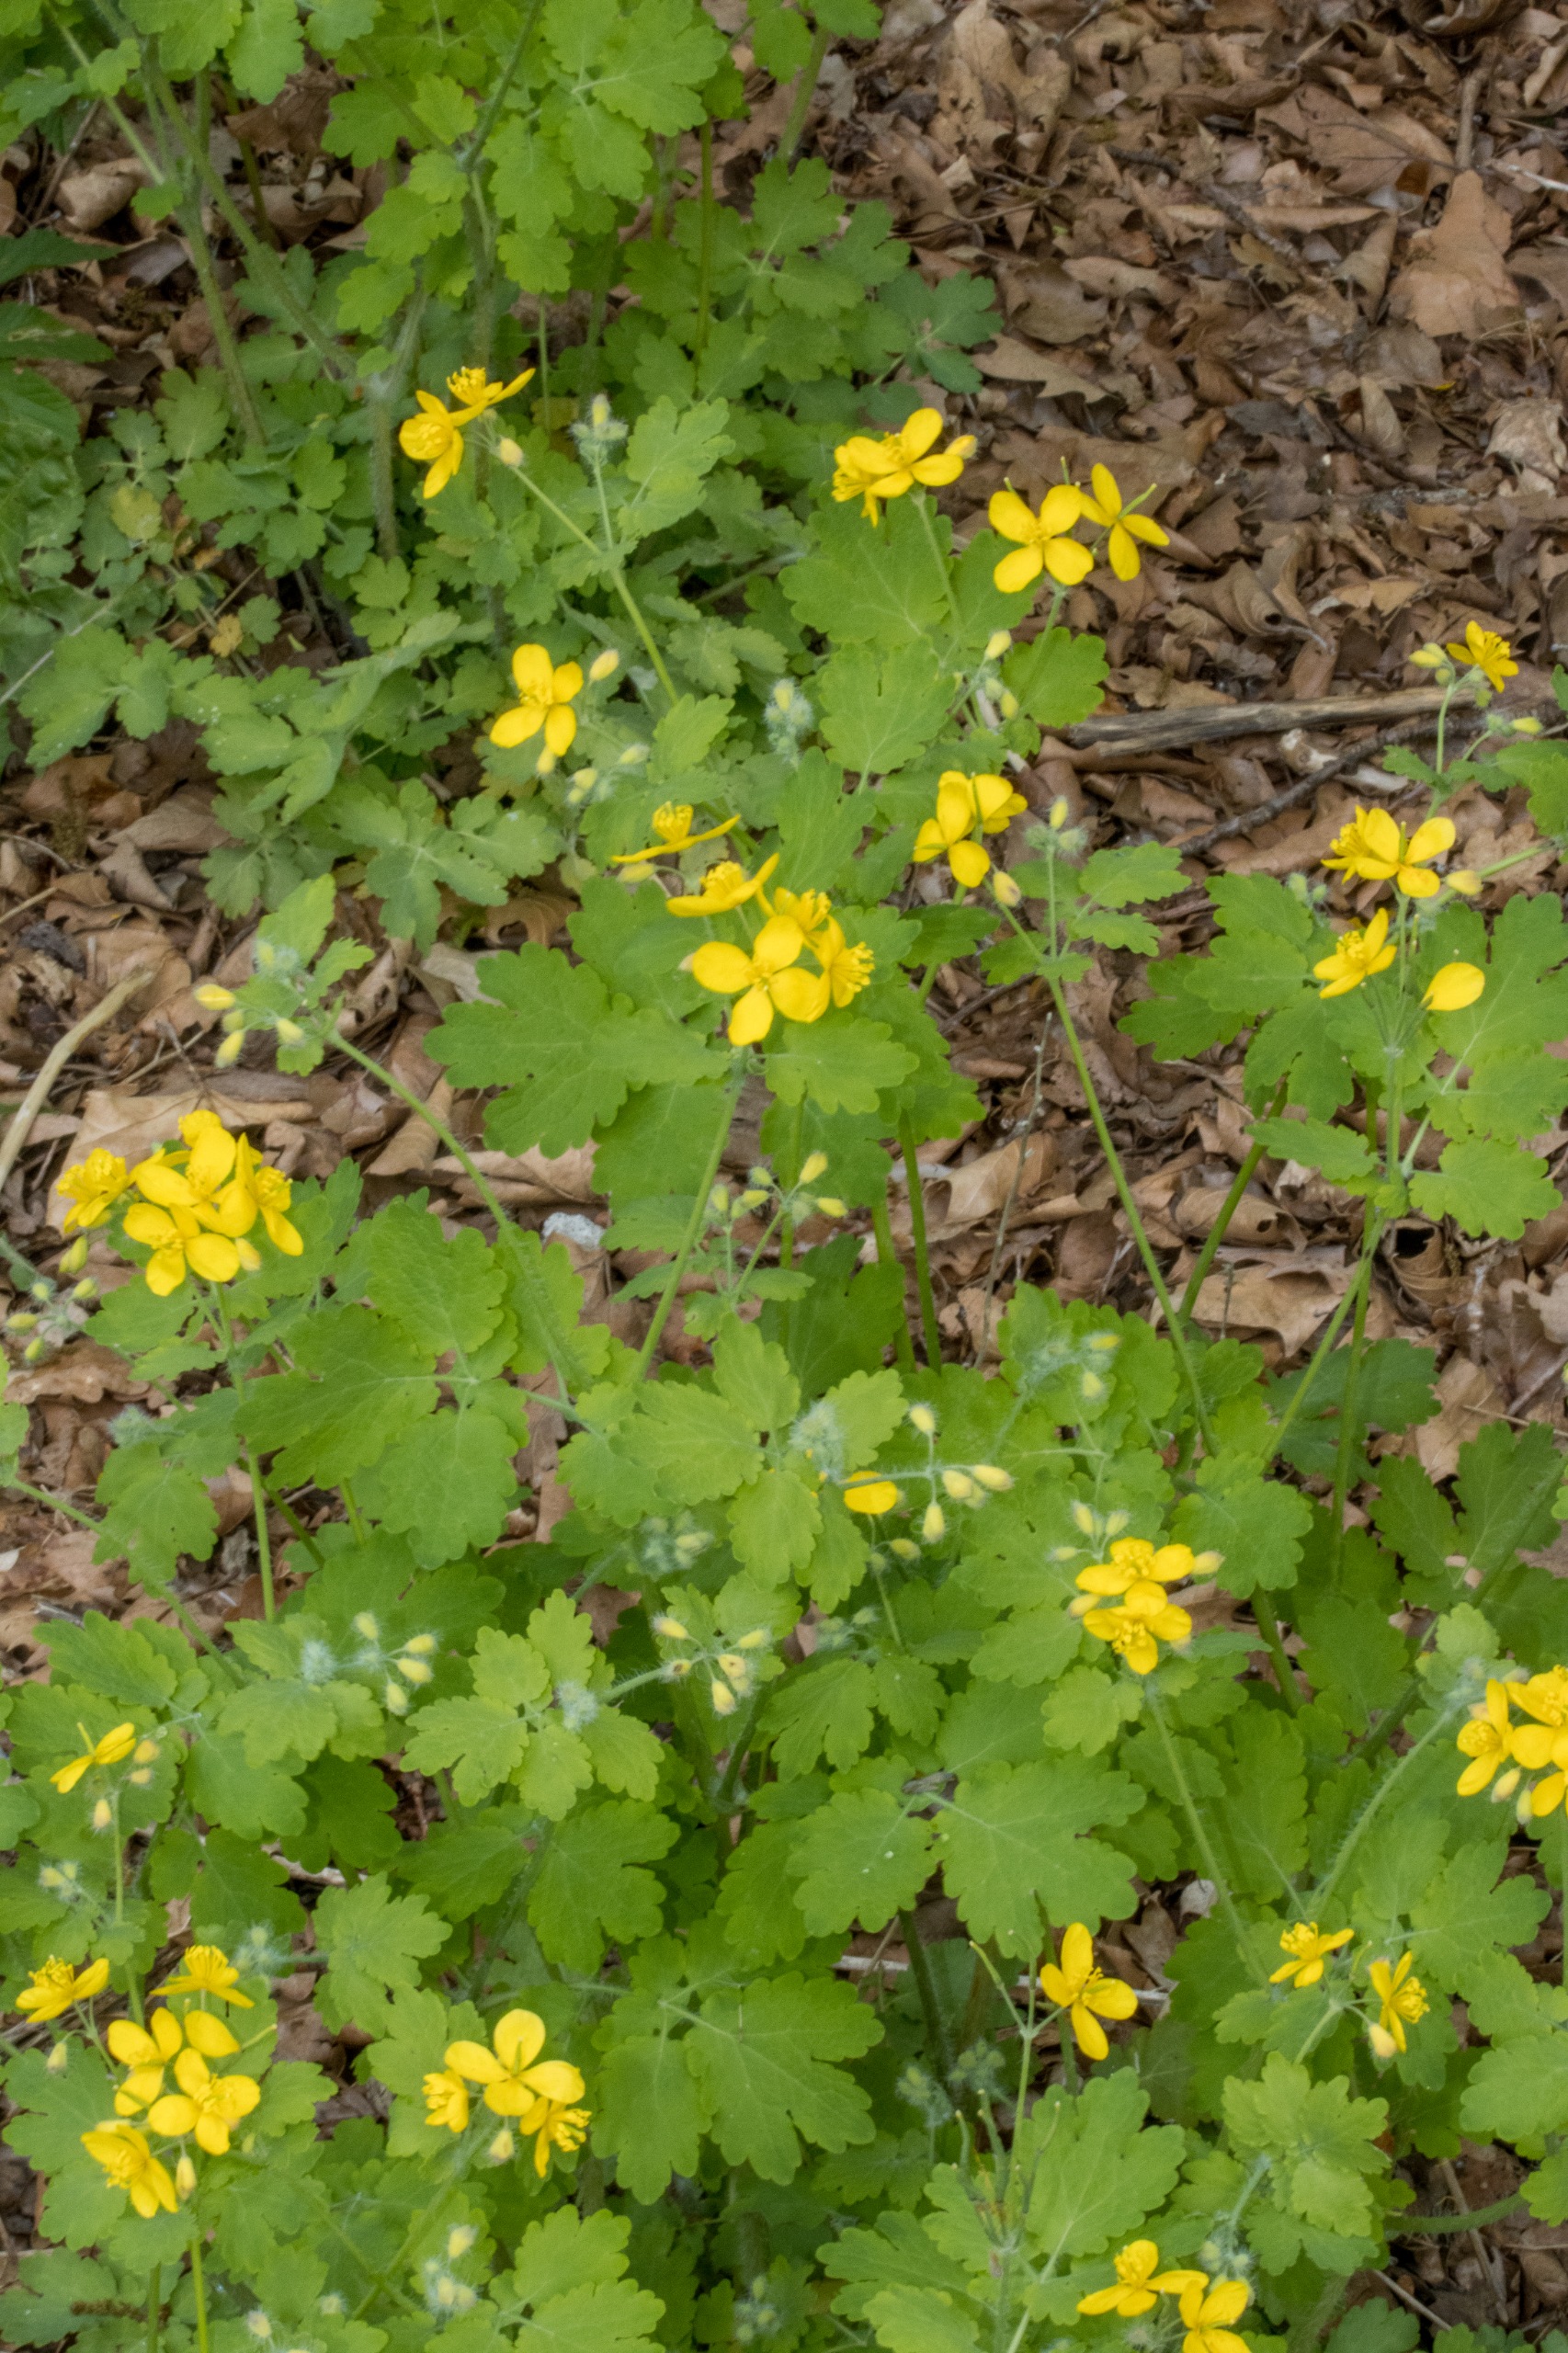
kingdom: Plantae
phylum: Tracheophyta
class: Magnoliopsida
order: Ranunculales
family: Papaveraceae
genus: Chelidonium
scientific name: Chelidonium majus
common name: Svaleurt
